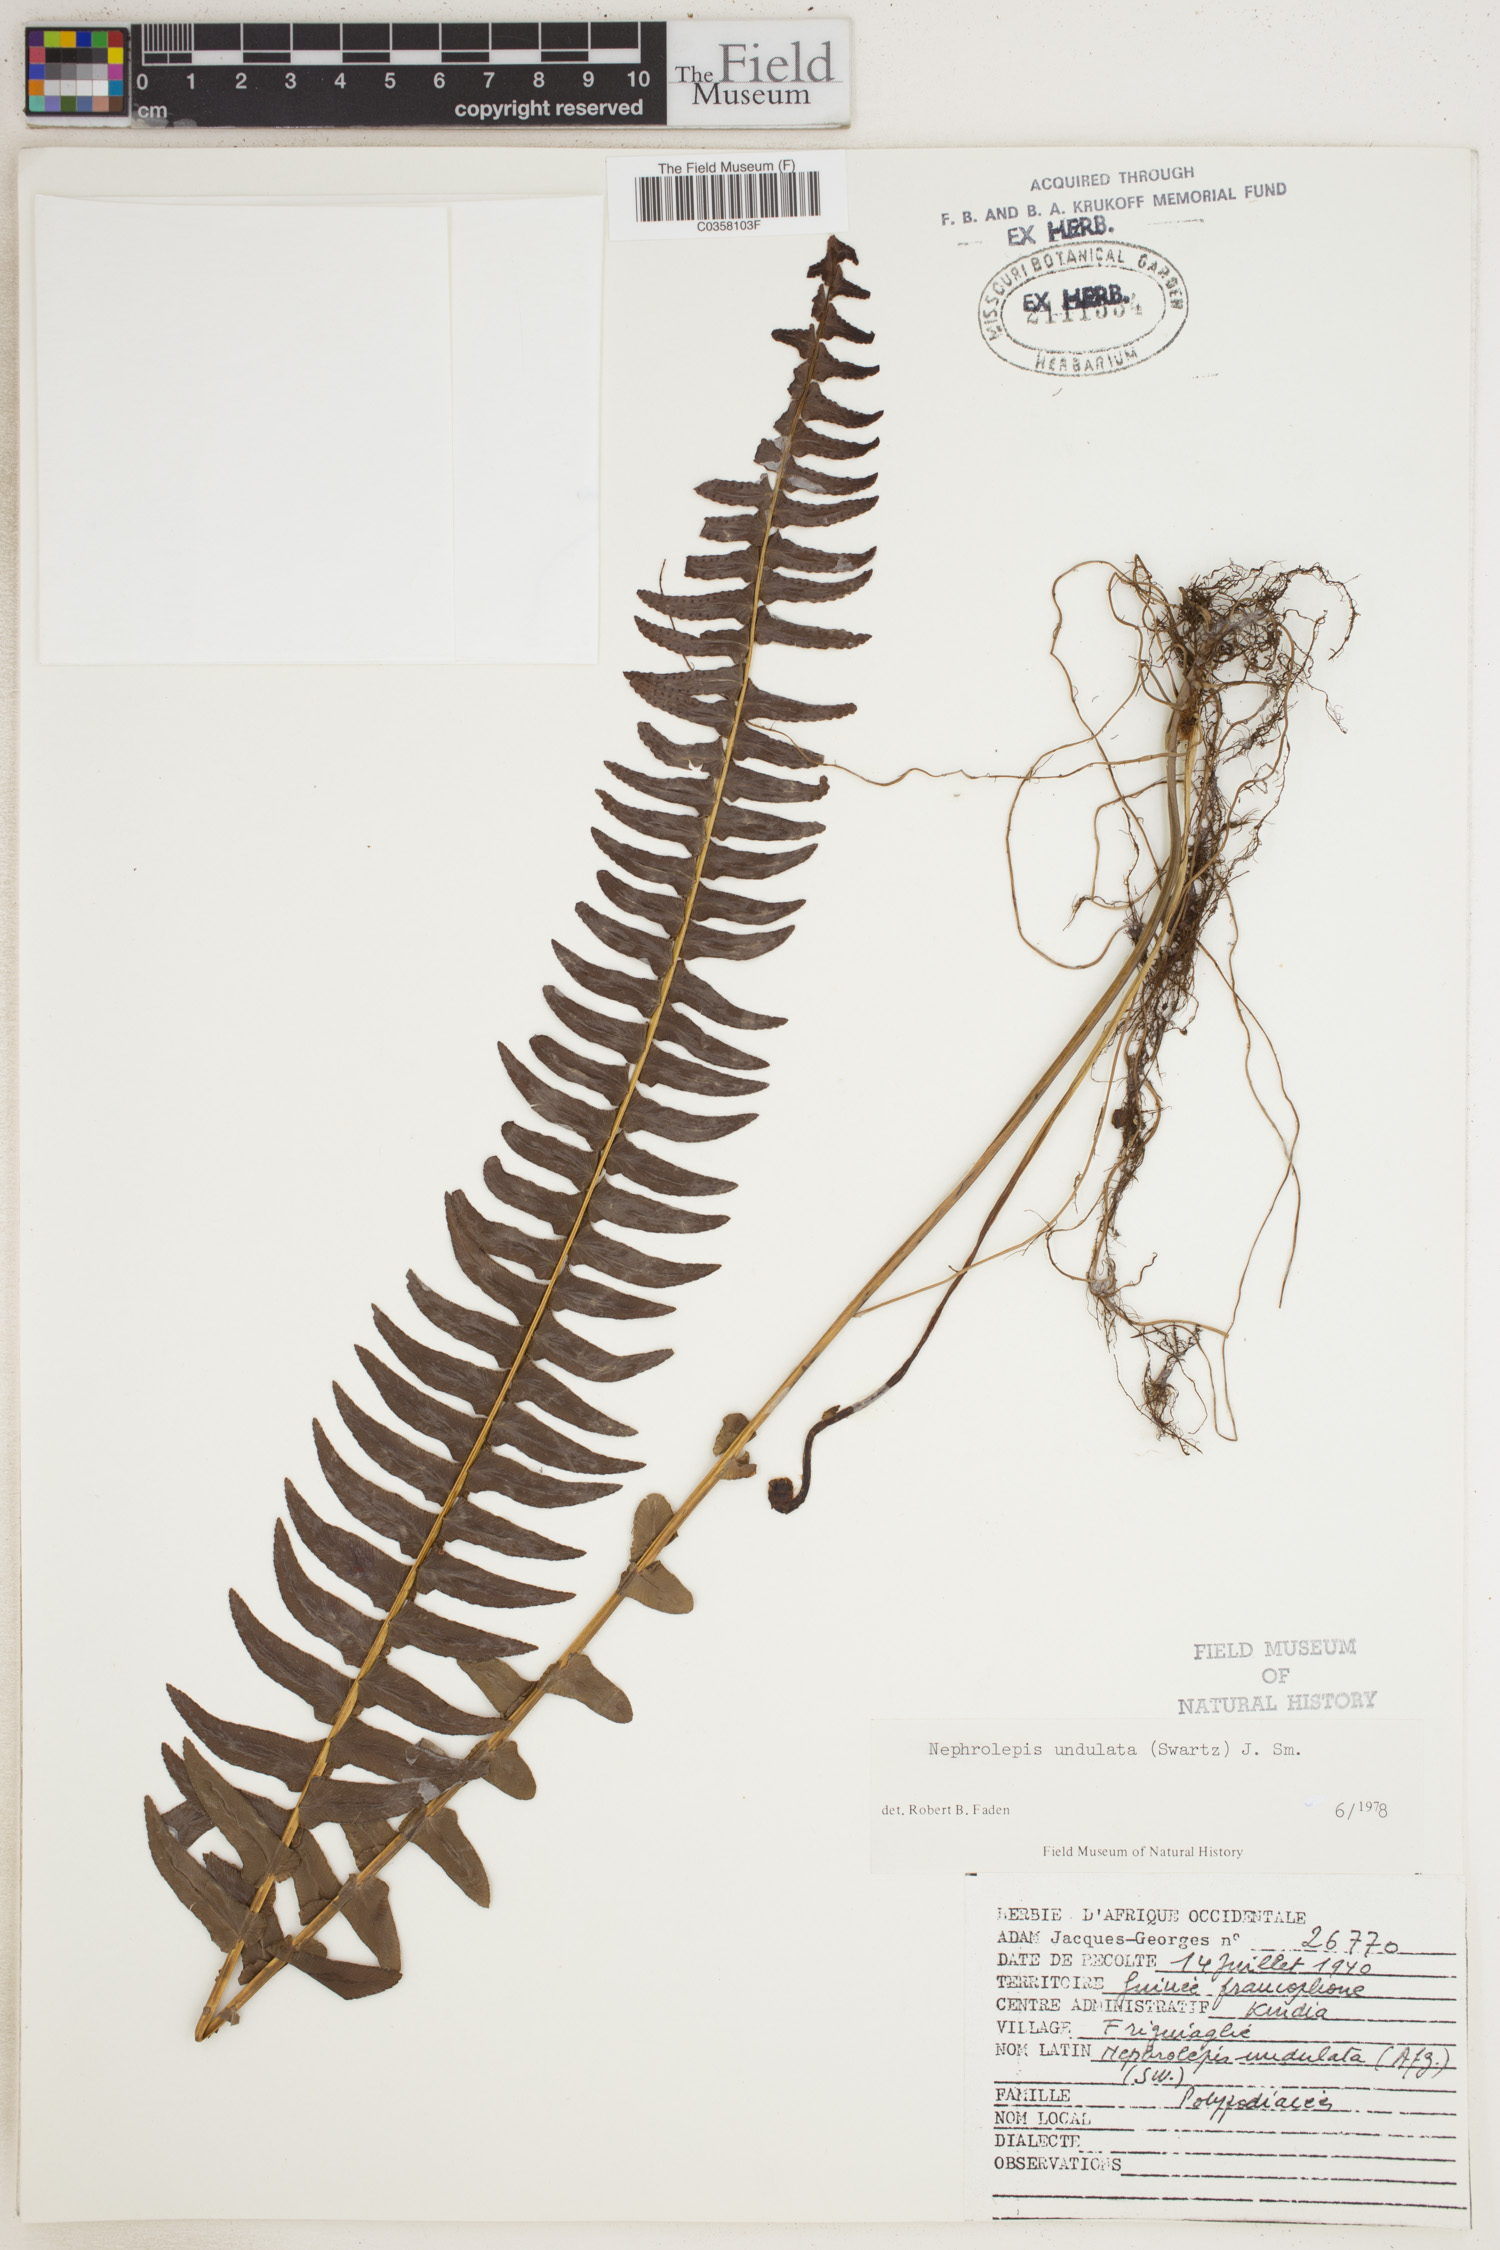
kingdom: Plantae
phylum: Tracheophyta
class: Polypodiopsida
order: Polypodiales
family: Nephrolepidaceae
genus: Nephrolepis
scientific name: Nephrolepis undulata
